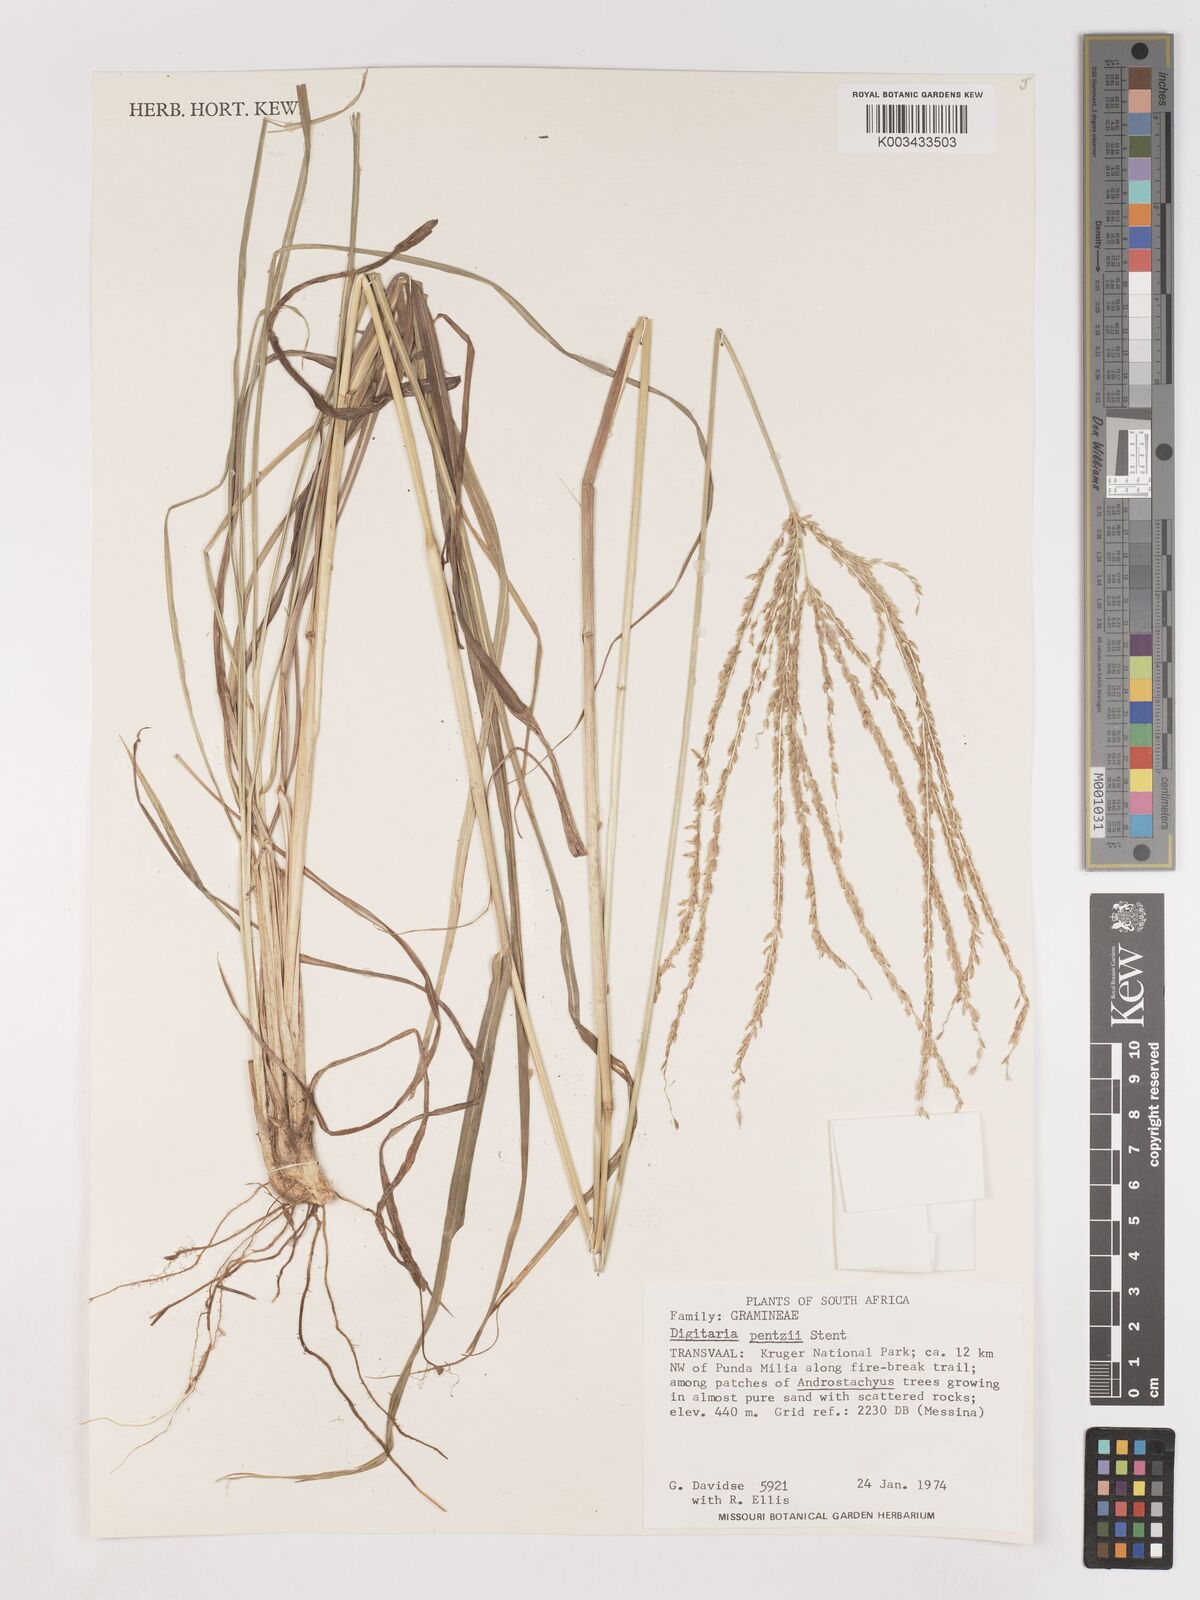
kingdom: Plantae
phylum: Tracheophyta
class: Liliopsida
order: Poales
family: Poaceae
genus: Digitaria
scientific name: Digitaria eriantha
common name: Digitgrass
